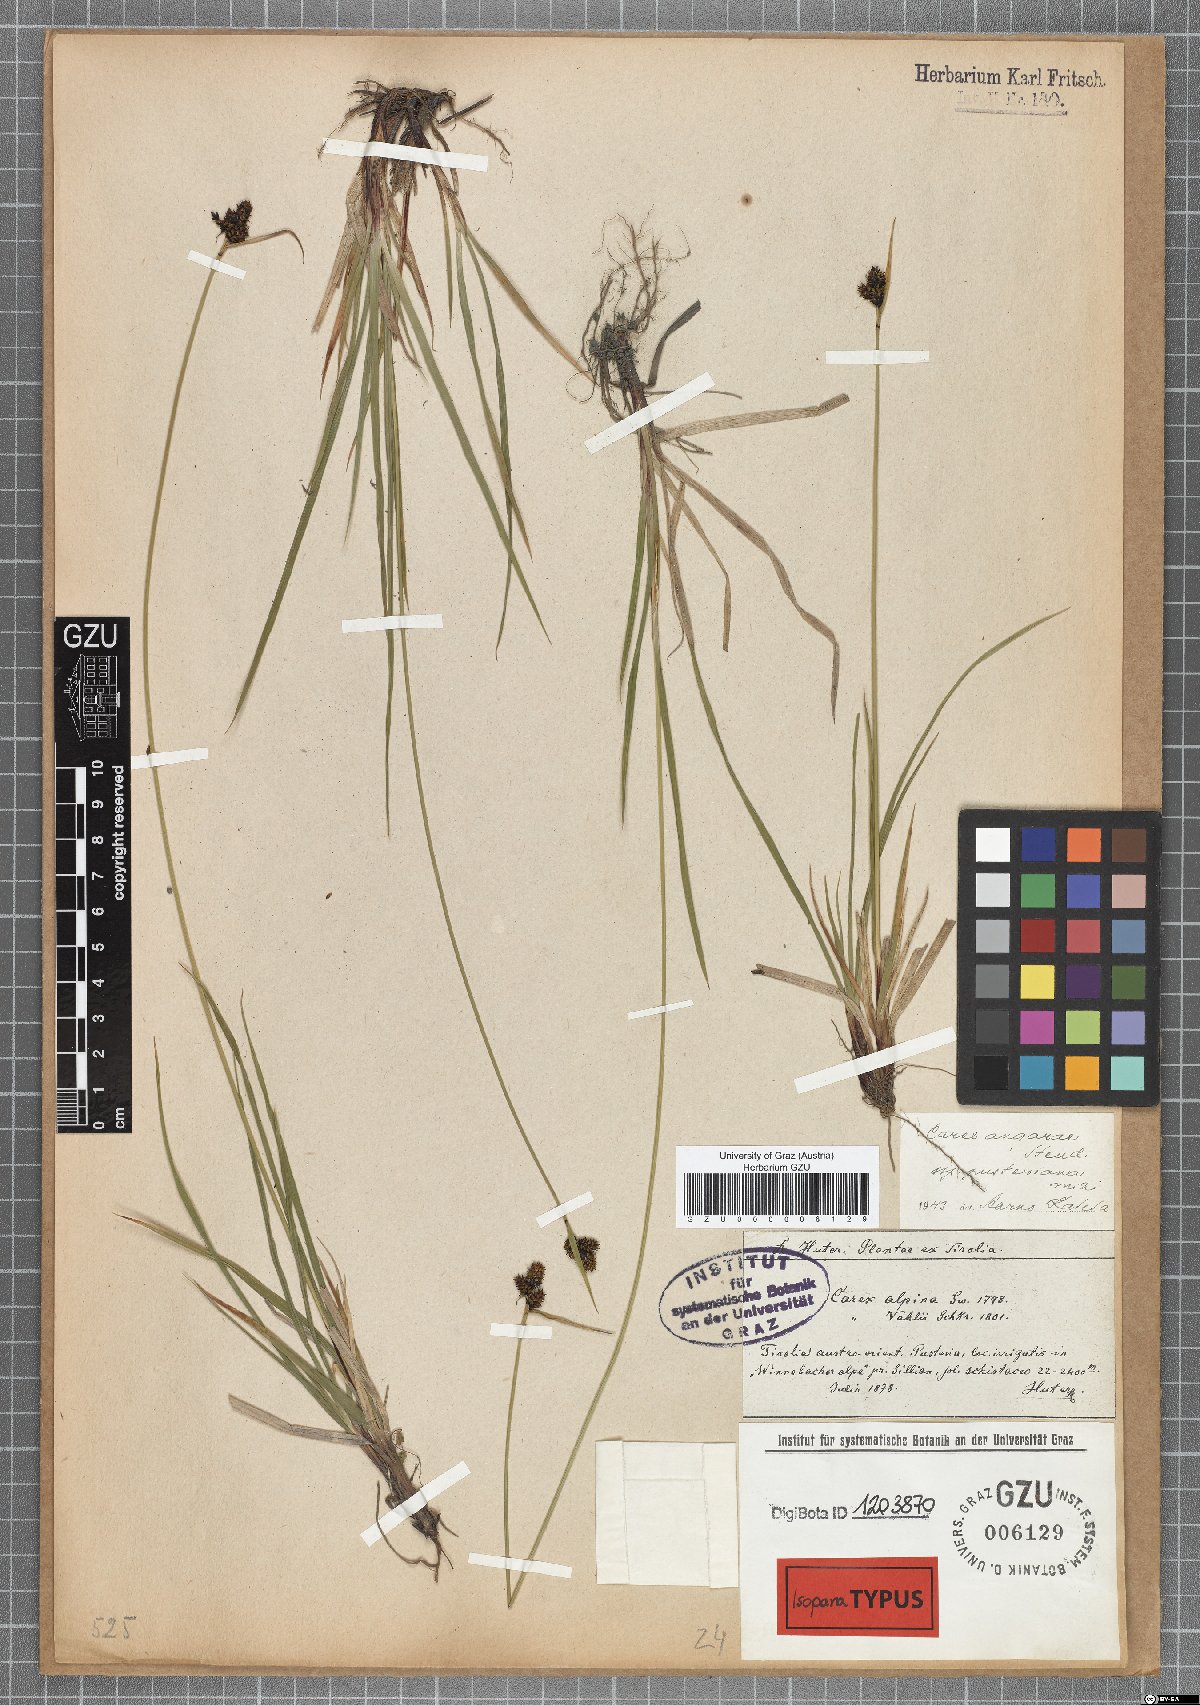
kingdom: Plantae
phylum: Tracheophyta
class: Liliopsida
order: Poales
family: Cyperaceae
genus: Carex
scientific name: Carex norvegica
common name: Close-headed alpine-sedge
